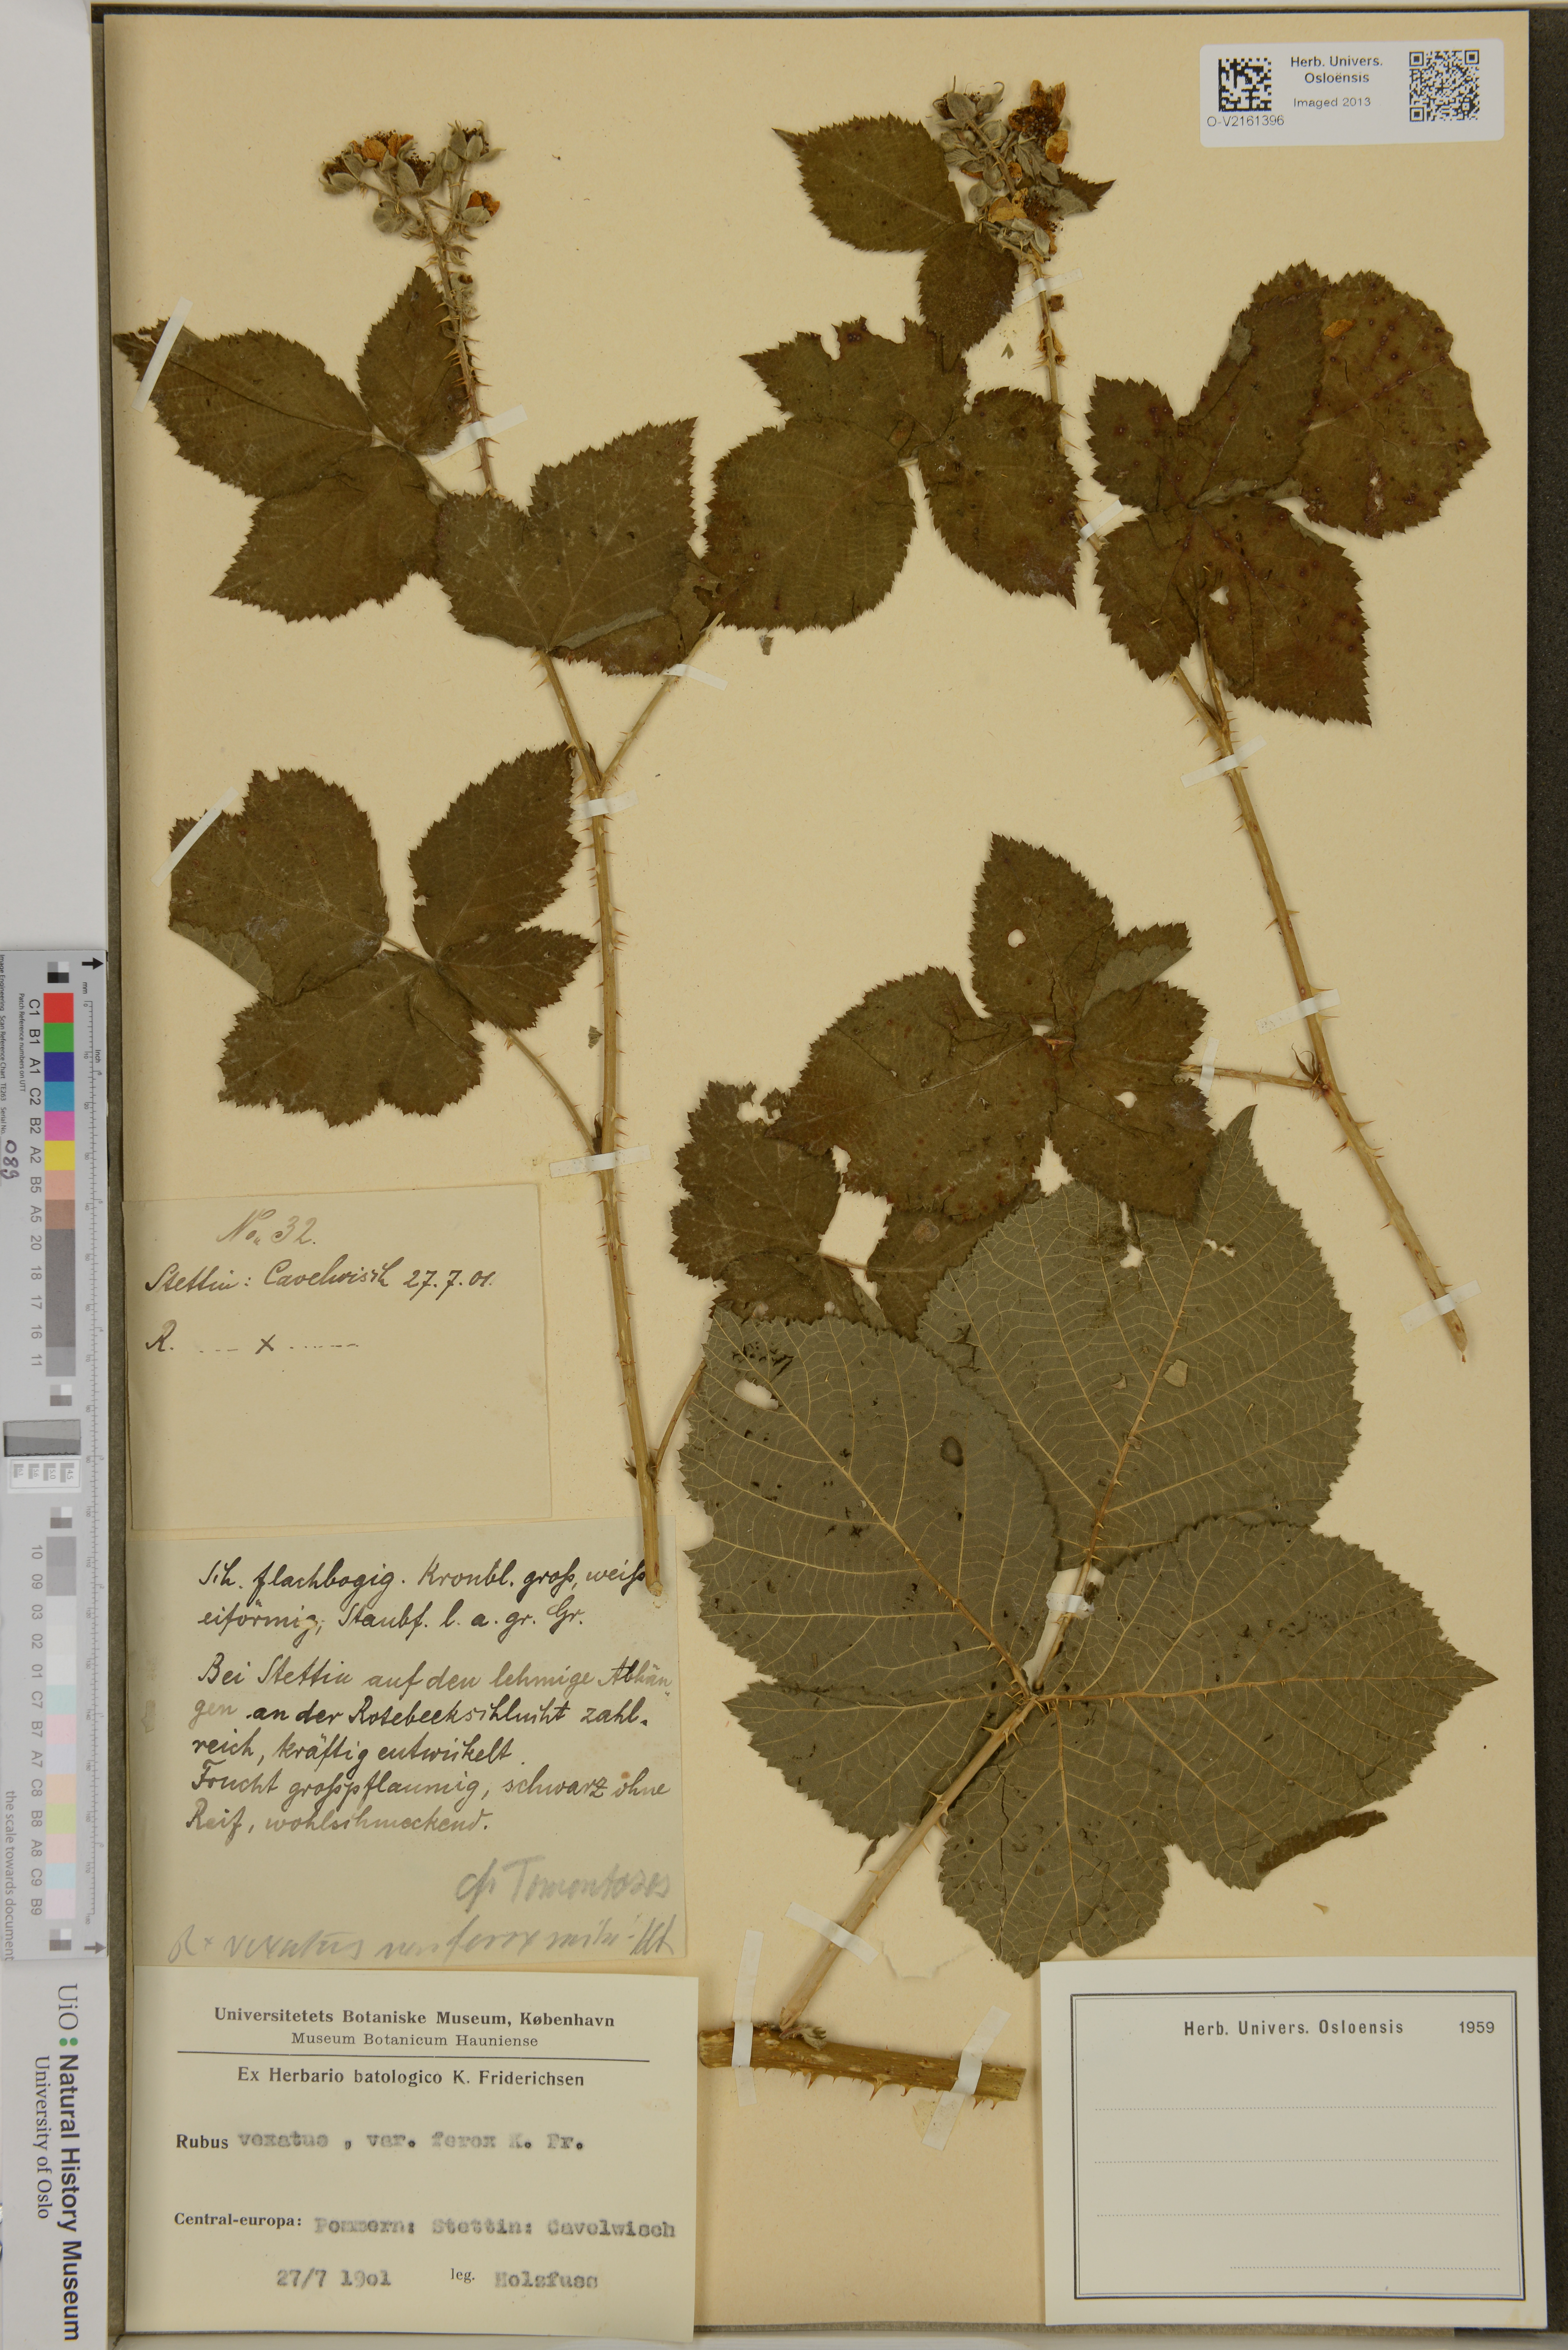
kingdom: Plantae
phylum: Tracheophyta
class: Magnoliopsida
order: Rosales
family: Rosaceae
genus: Rubus
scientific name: Rubus wahlbergii
